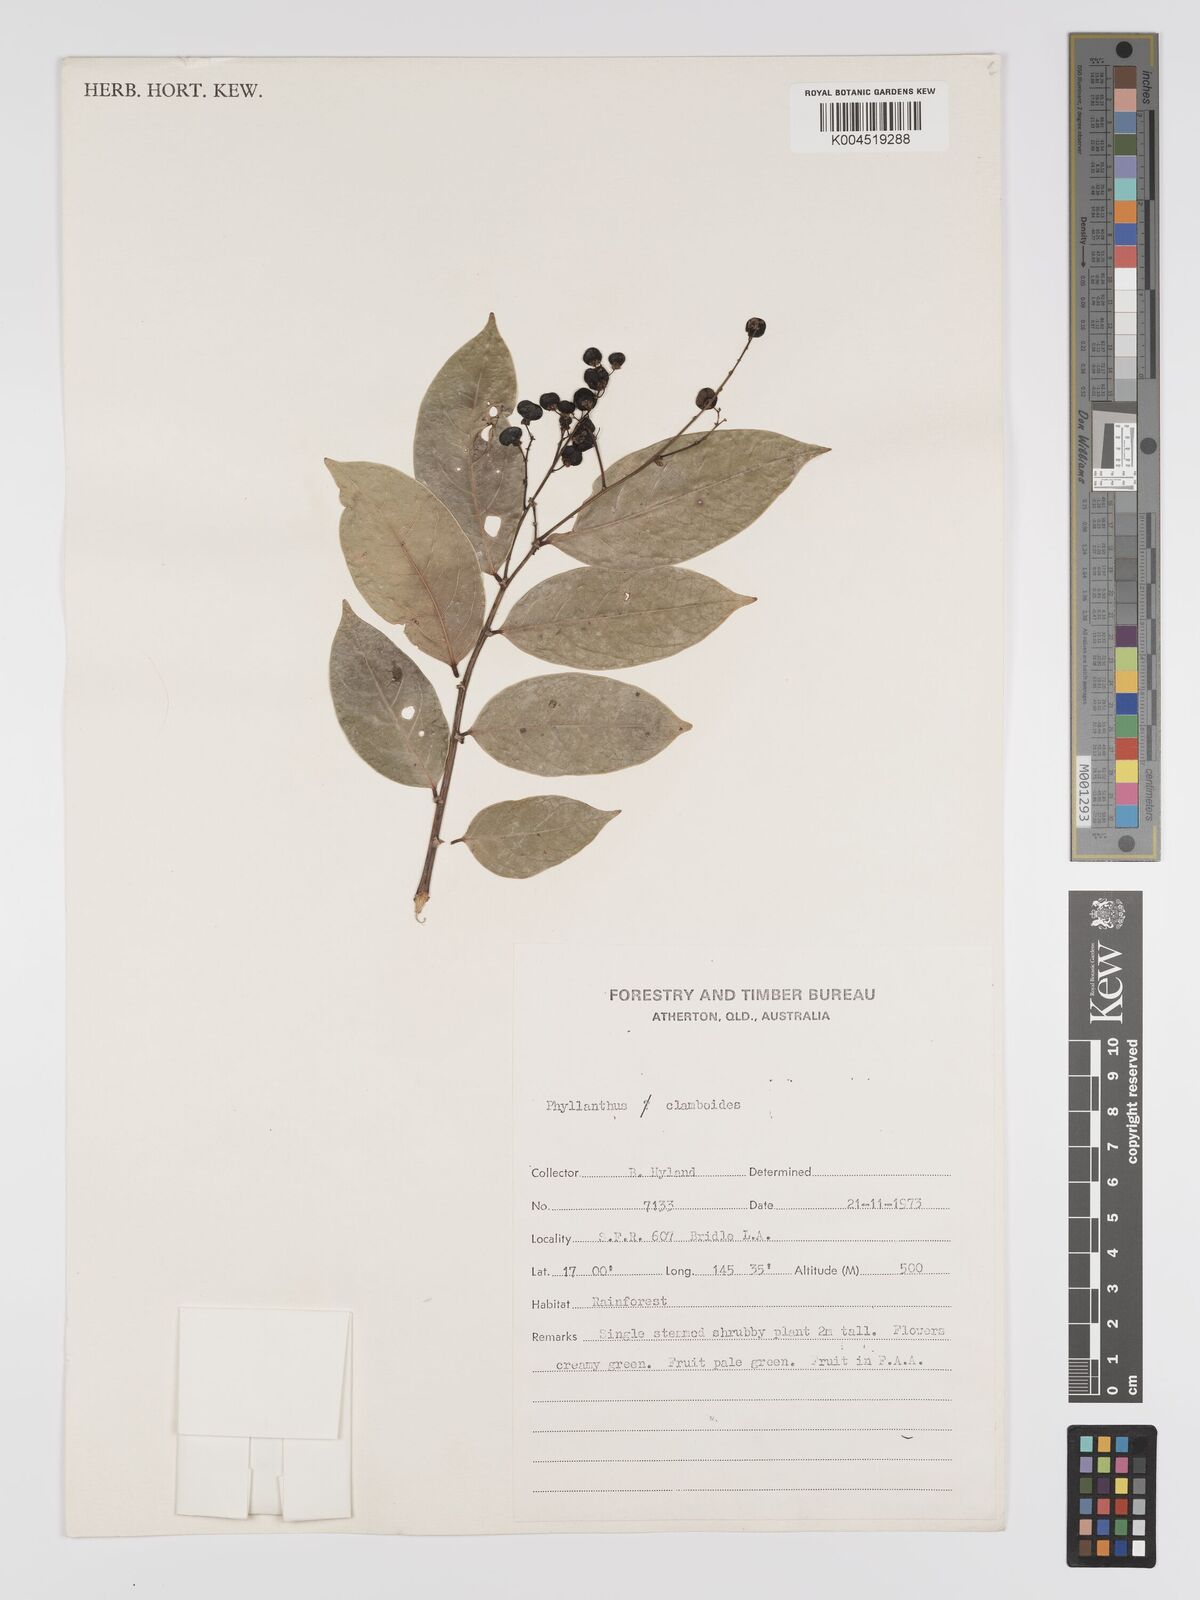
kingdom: Plantae
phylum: Tracheophyta
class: Magnoliopsida
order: Malpighiales
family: Phyllanthaceae
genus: Phyllanthus
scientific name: Phyllanthus clamboides
